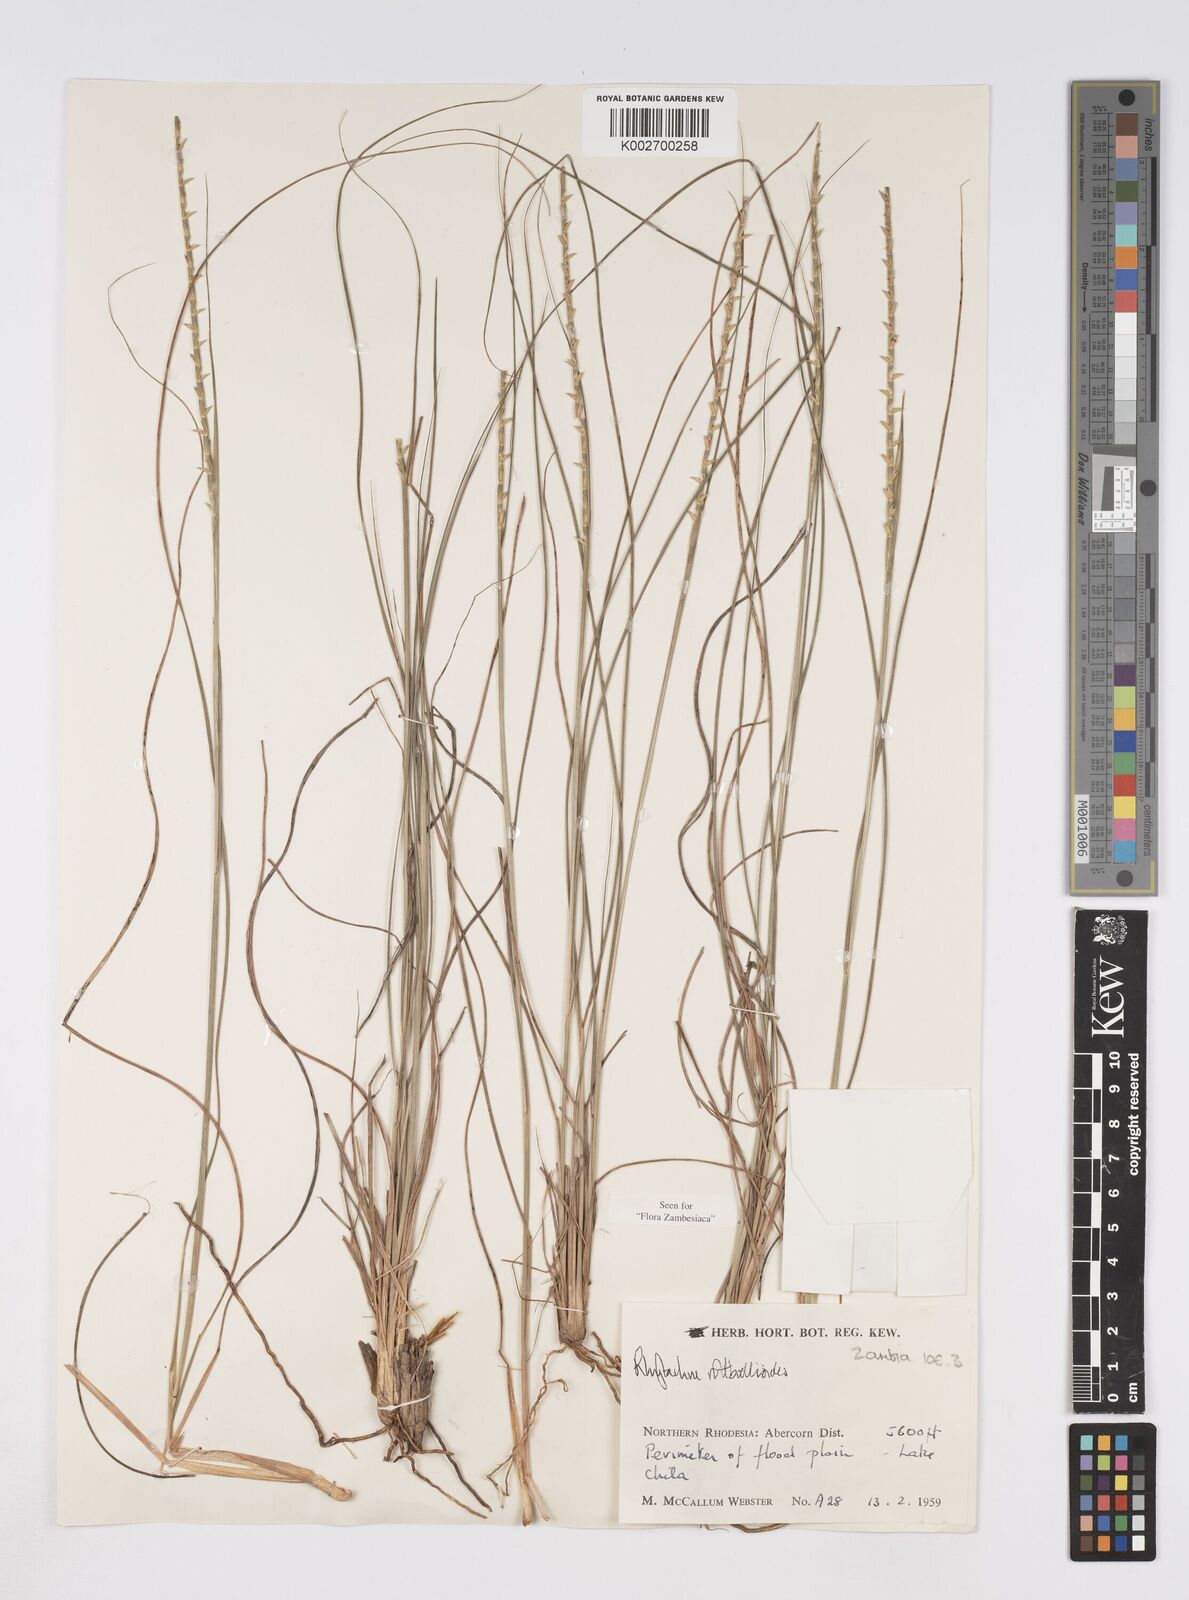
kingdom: Plantae
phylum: Tracheophyta
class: Liliopsida
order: Poales
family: Poaceae
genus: Rhytachne
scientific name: Rhytachne rottboellioides
